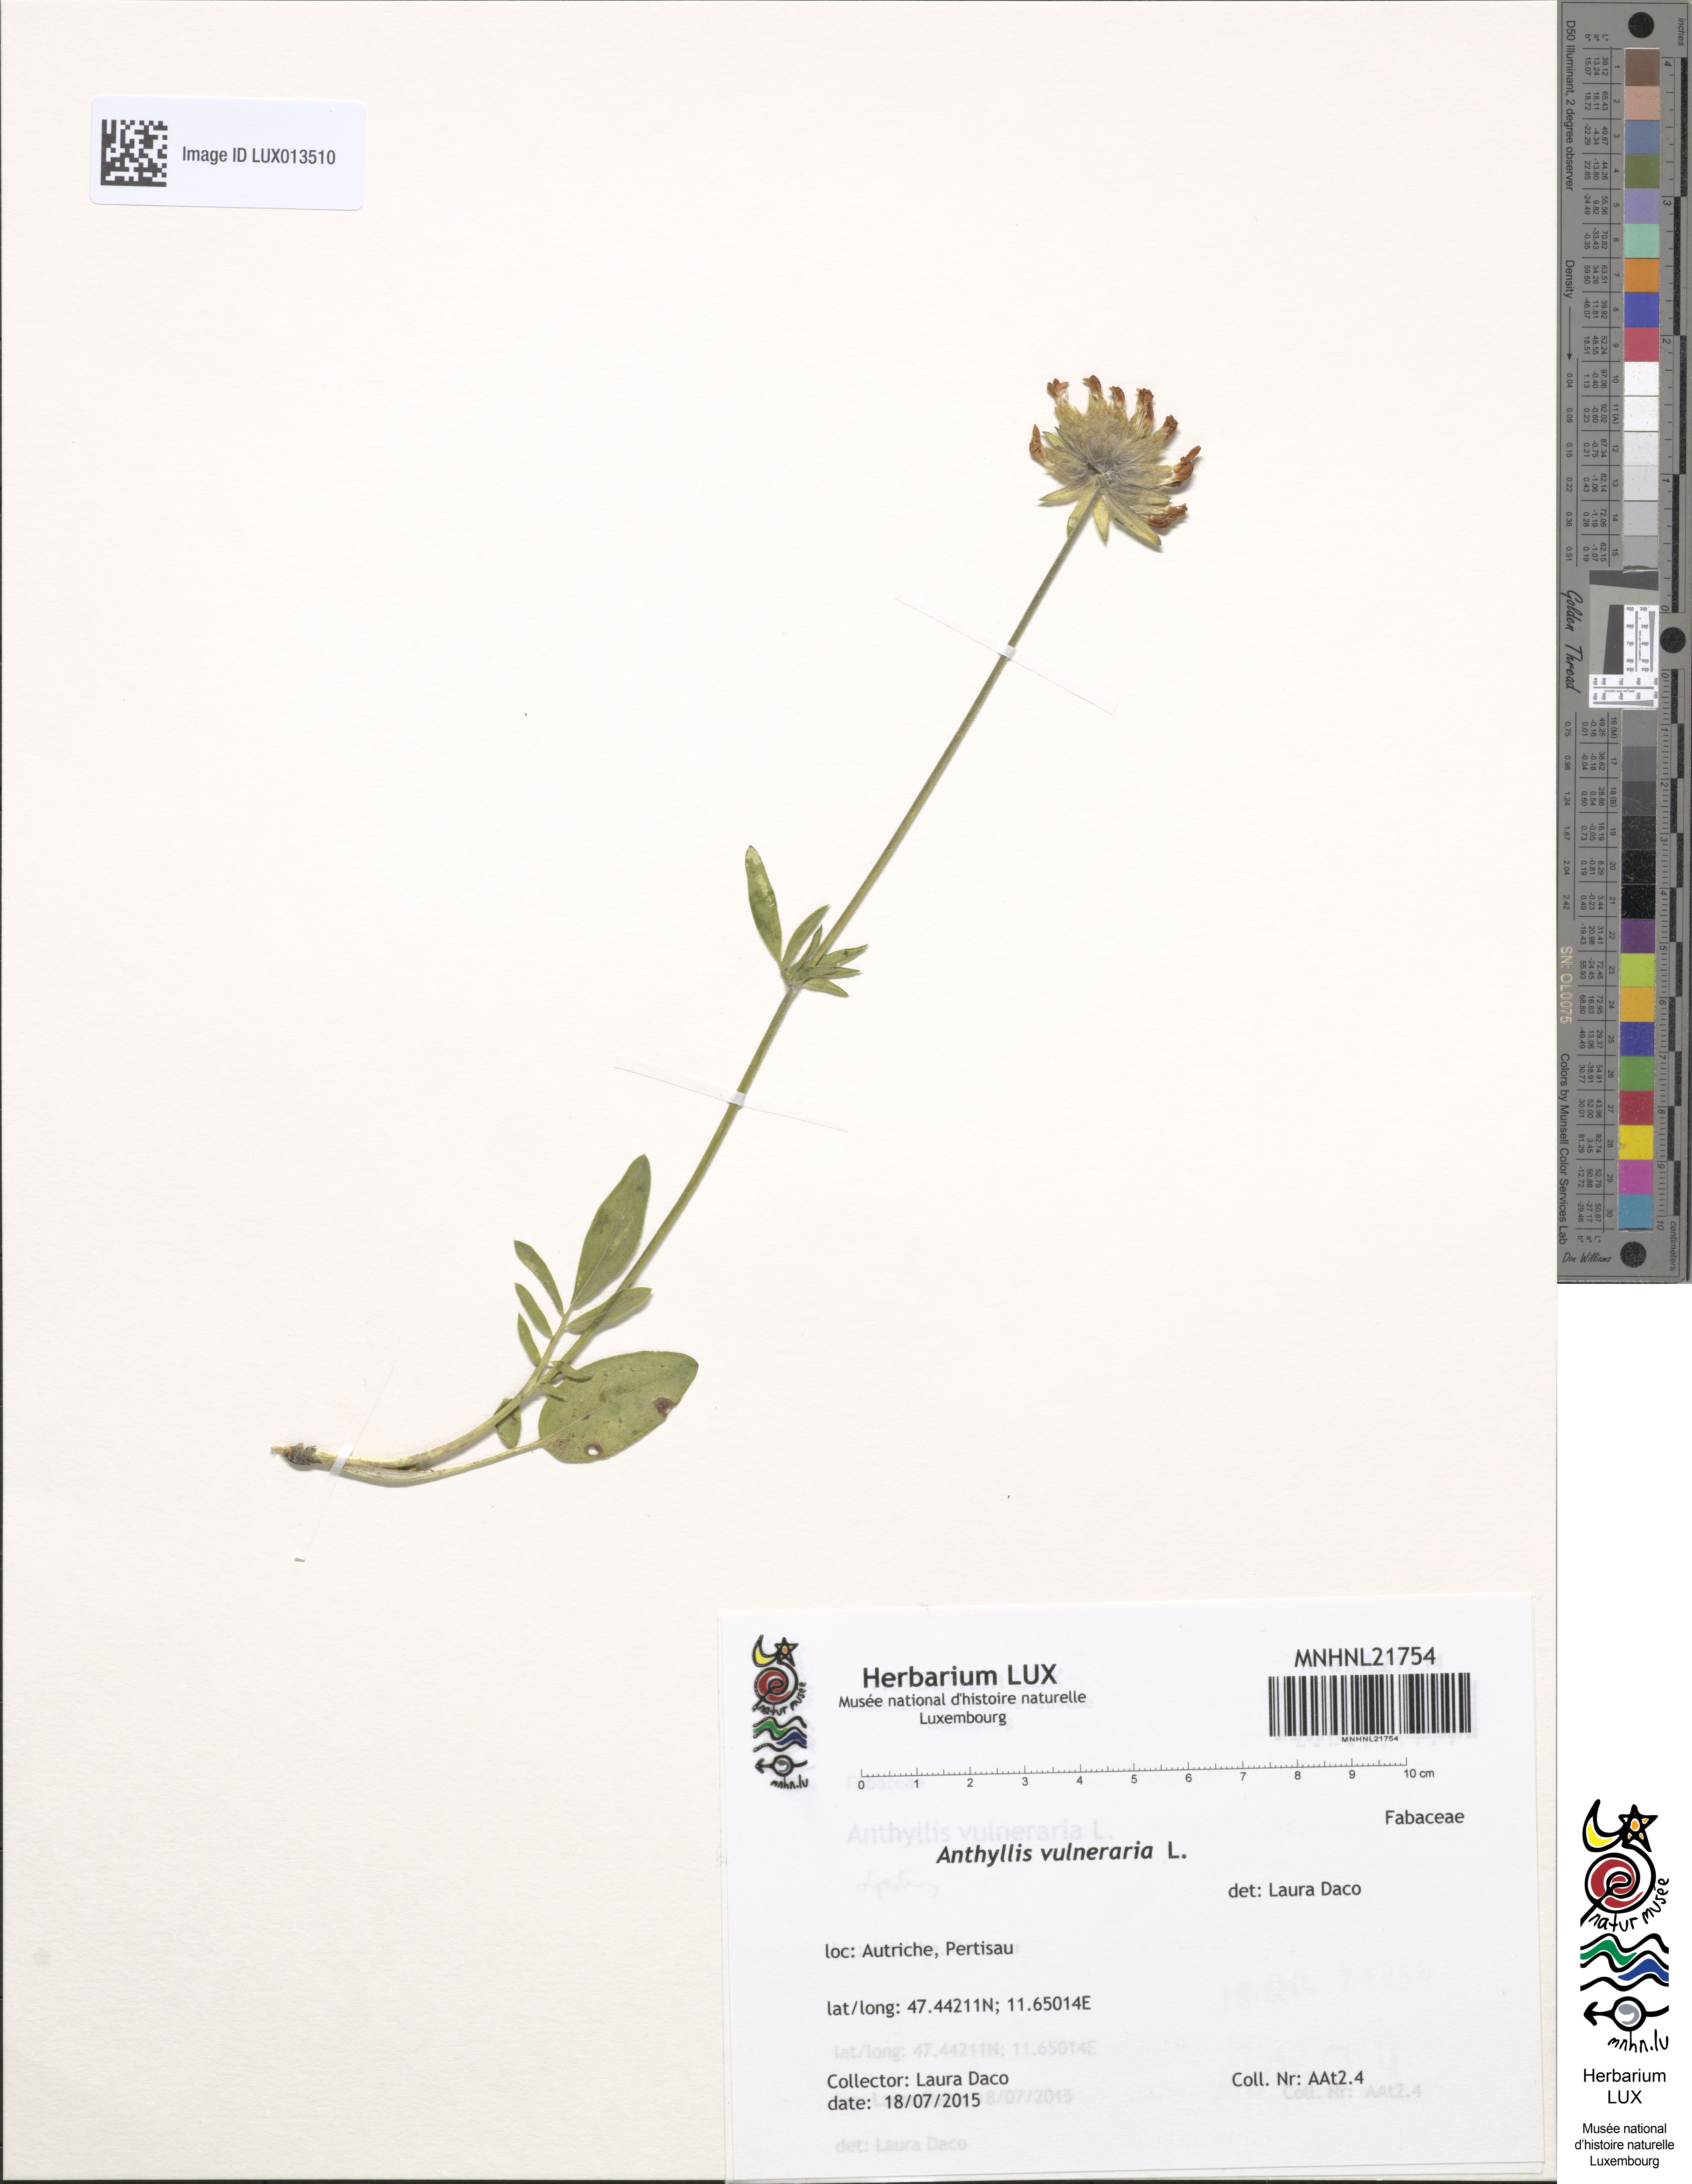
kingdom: Plantae
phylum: Tracheophyta
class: Magnoliopsida
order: Fabales
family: Fabaceae
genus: Anthyllis
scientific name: Anthyllis vulneraria
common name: Kidney vetch
